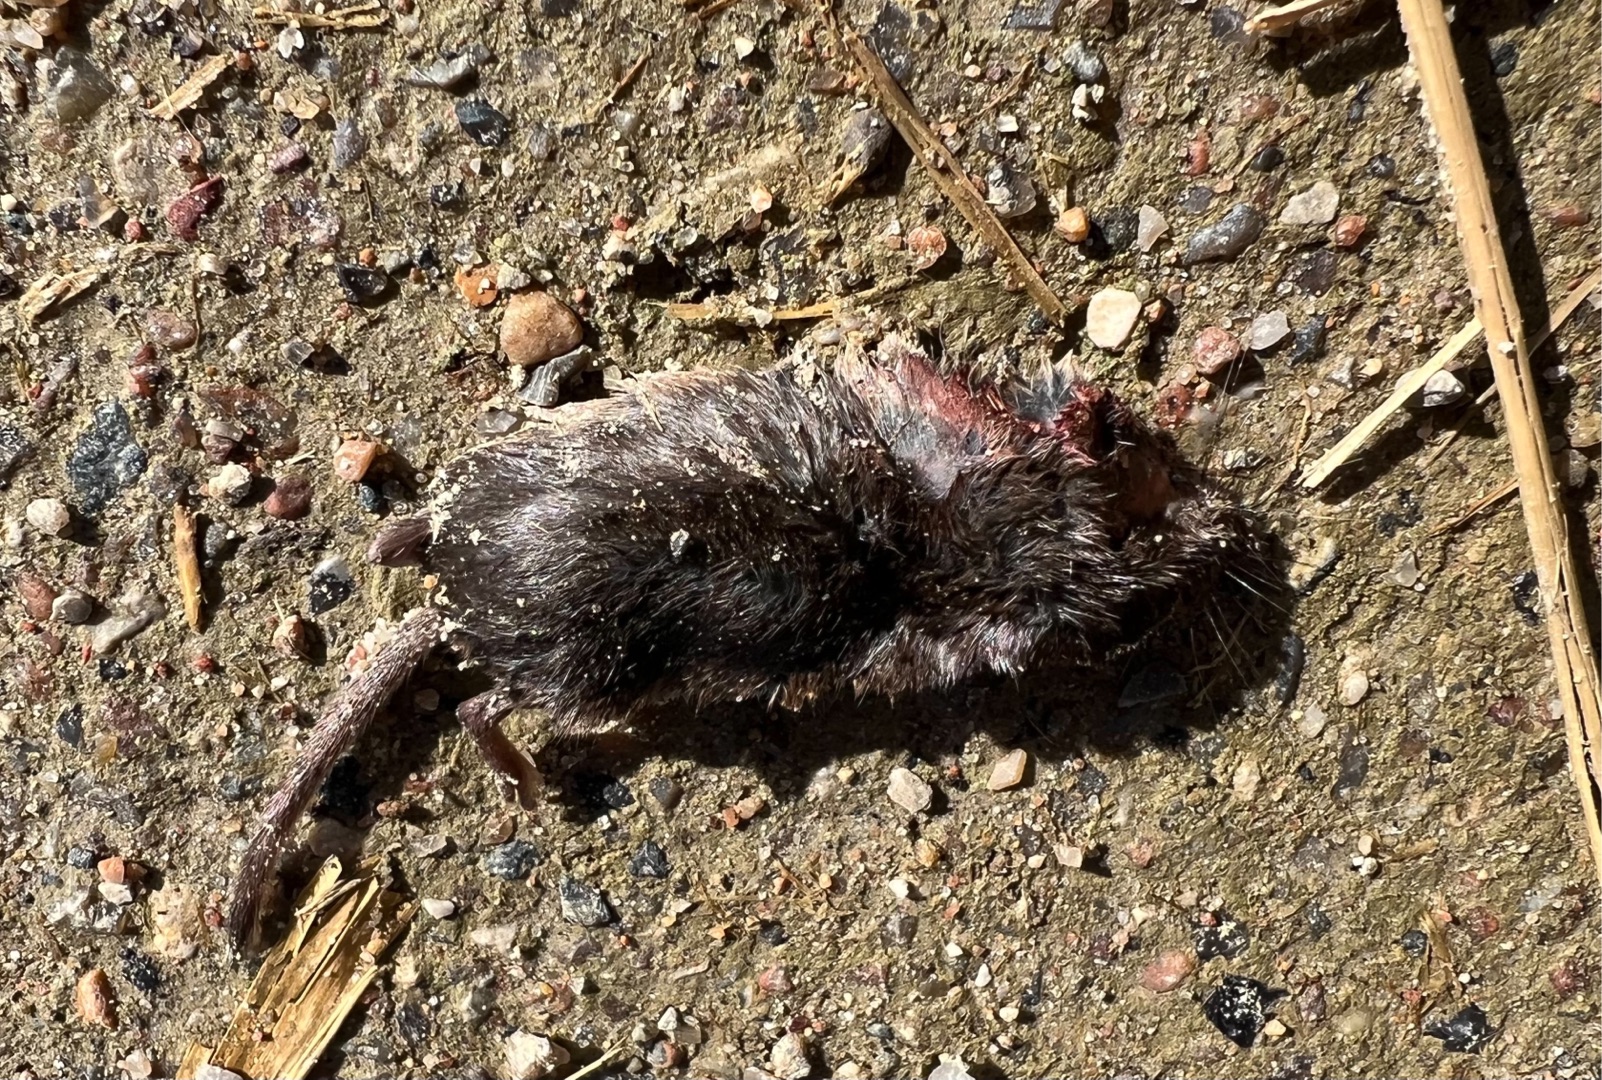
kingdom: Animalia
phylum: Chordata
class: Mammalia
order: Soricomorpha
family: Soricidae
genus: Sorex
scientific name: Sorex araneus
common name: Almindelig spidsmus
